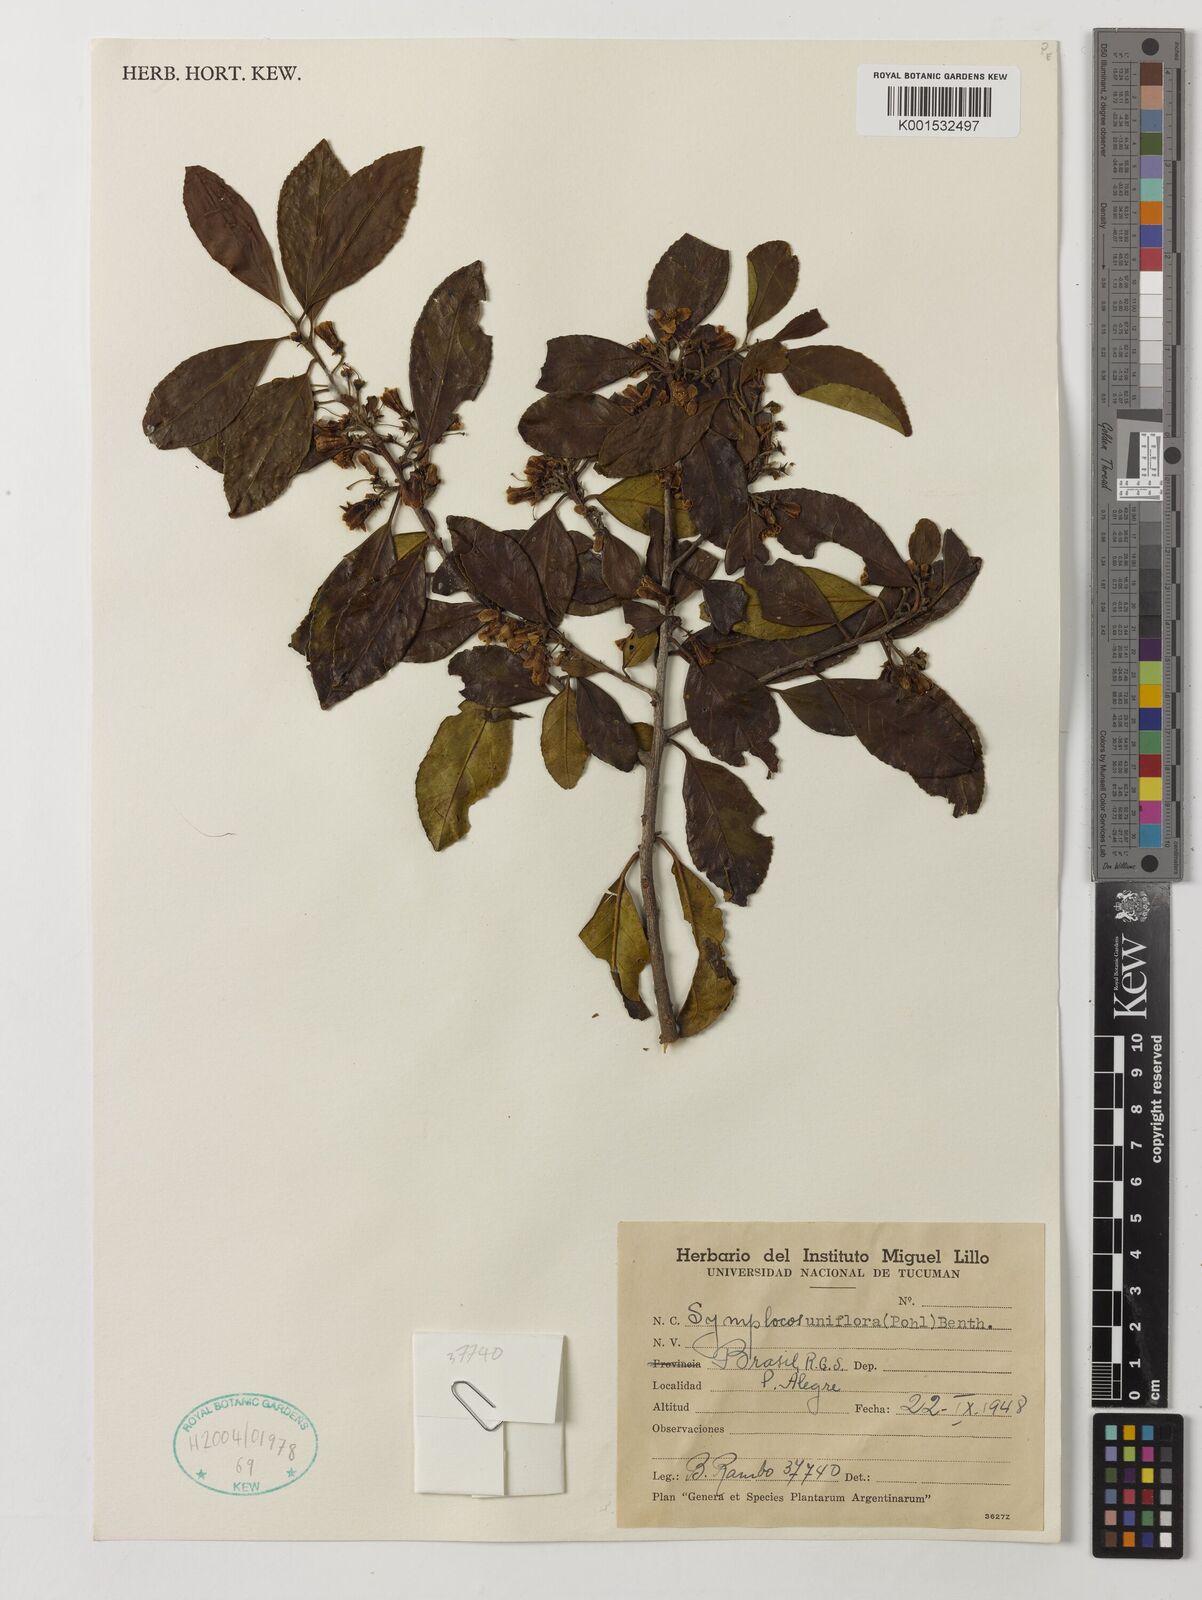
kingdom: Plantae
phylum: Tracheophyta
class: Magnoliopsida
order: Ericales
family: Symplocaceae
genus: Symplocos
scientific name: Symplocos uniflora
